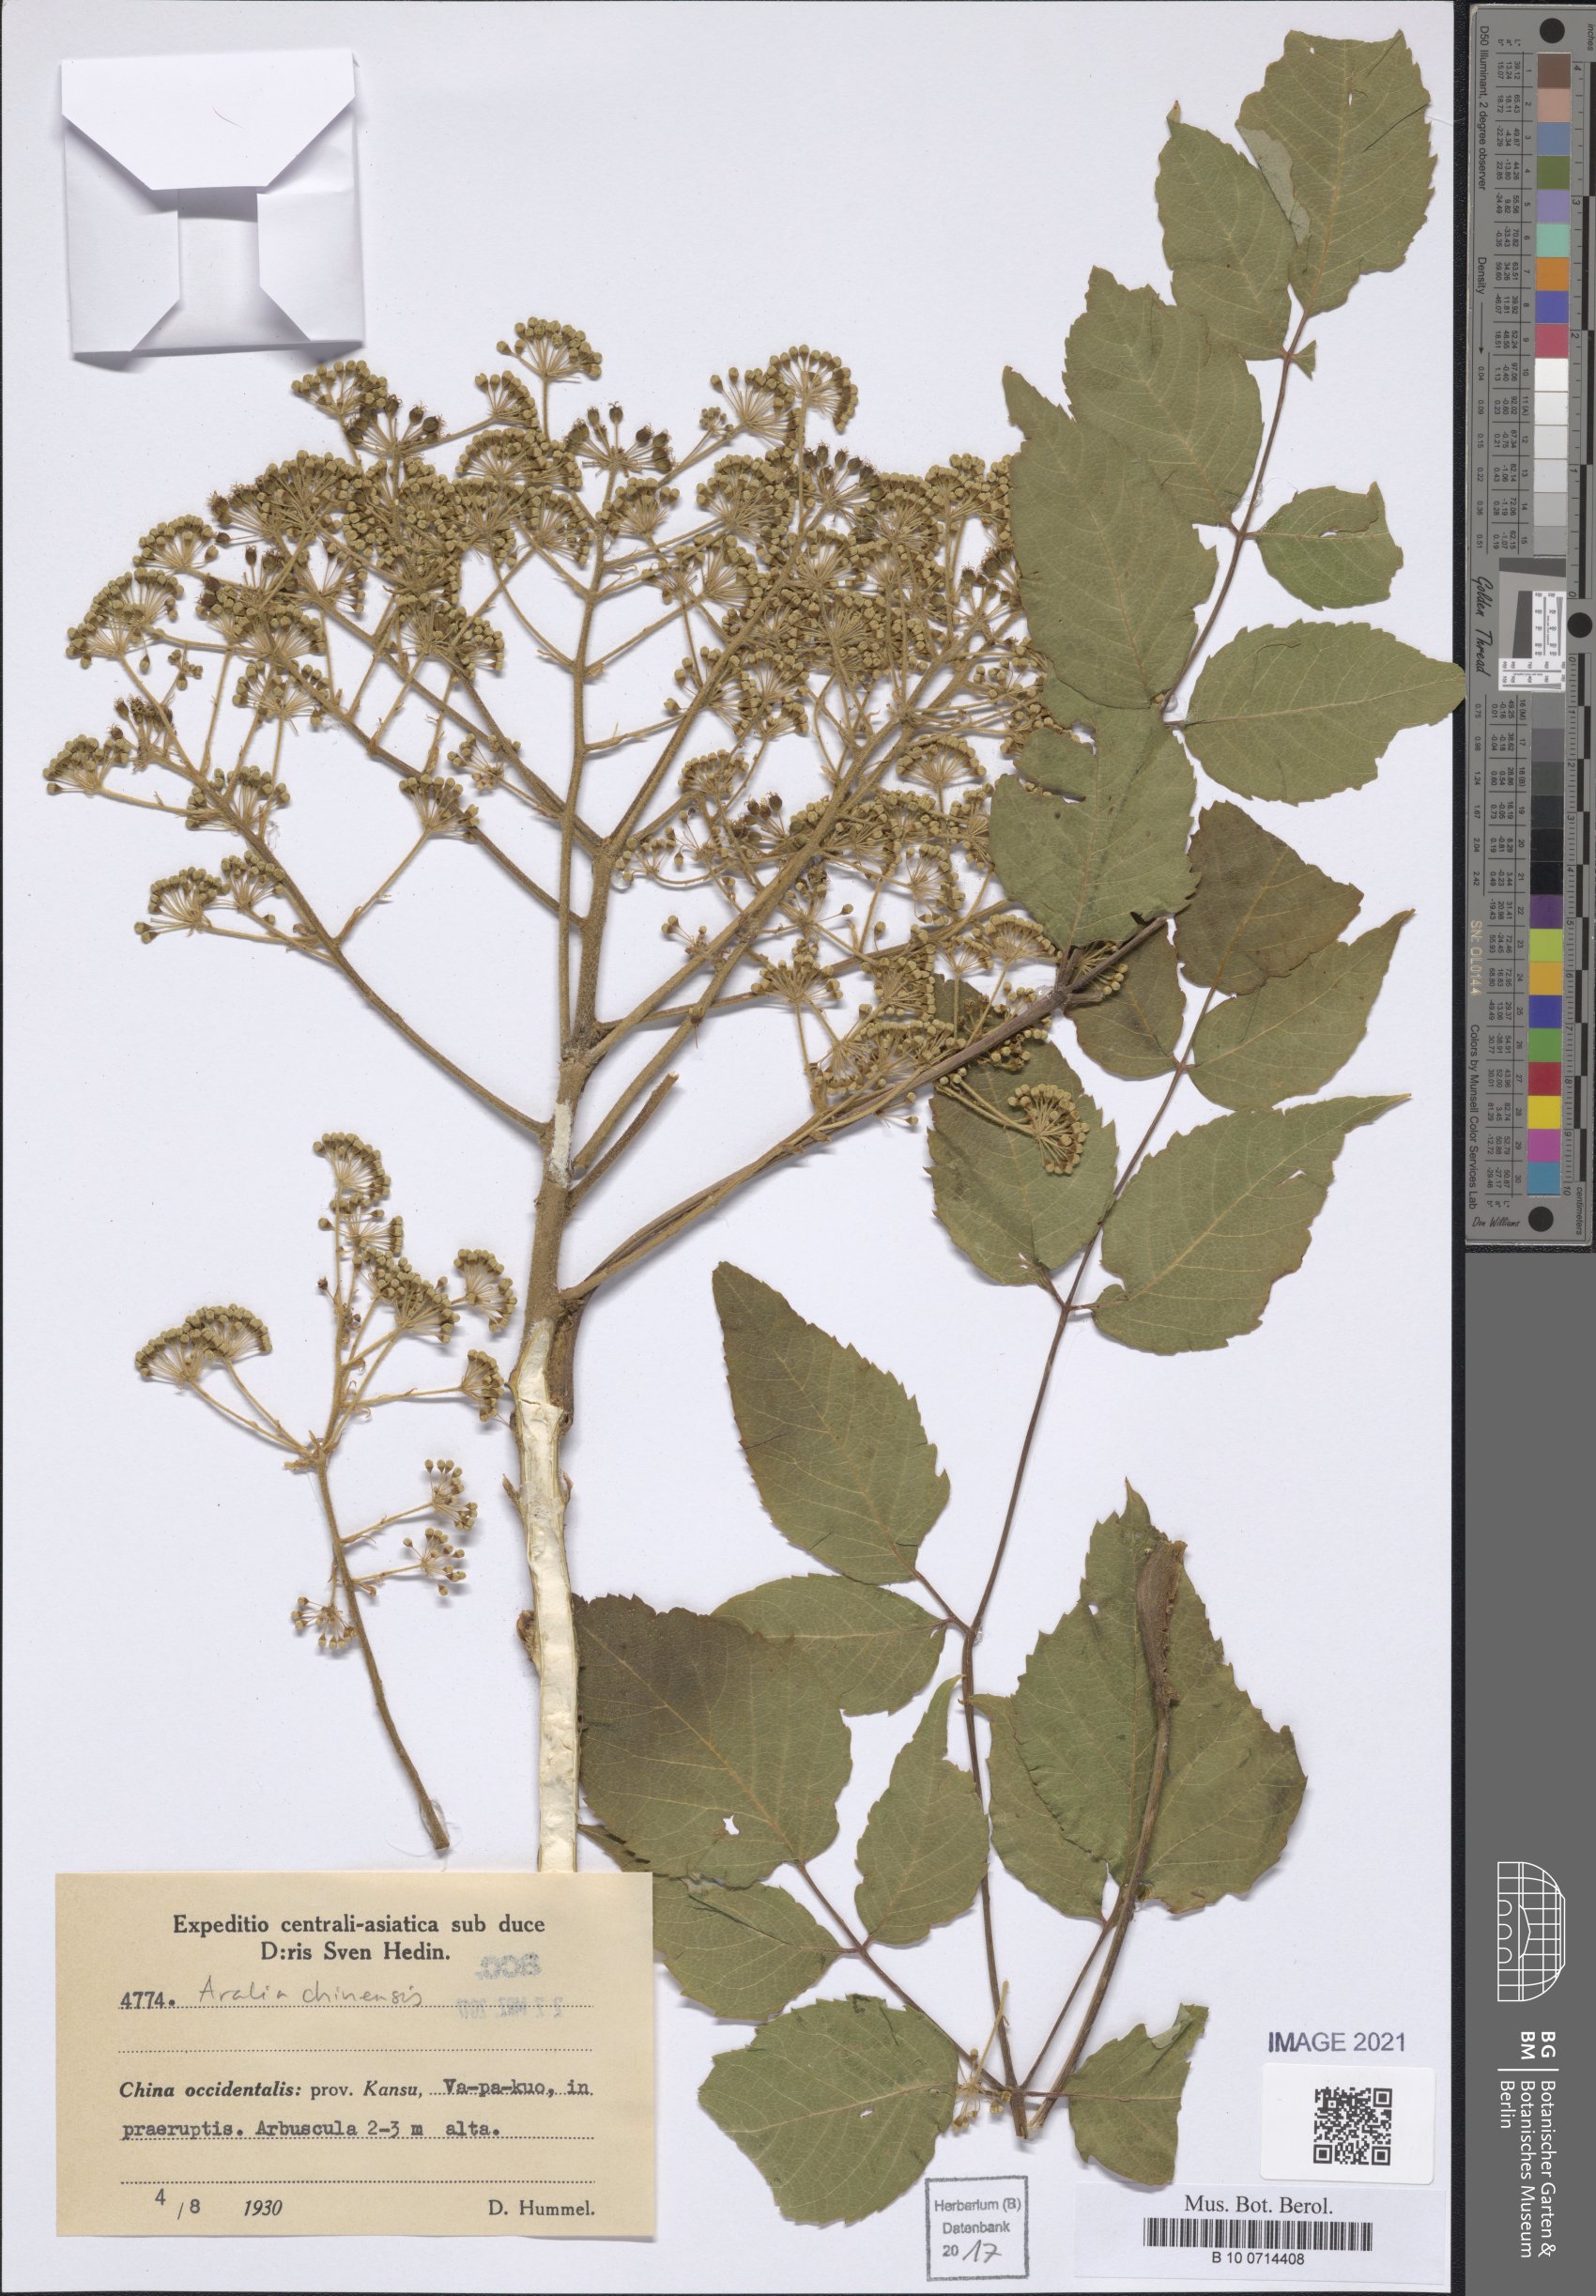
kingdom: Plantae
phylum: Tracheophyta
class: Magnoliopsida
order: Apiales
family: Araliaceae
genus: Aralia
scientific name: Aralia chinensis
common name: Chinese angelica-tree
